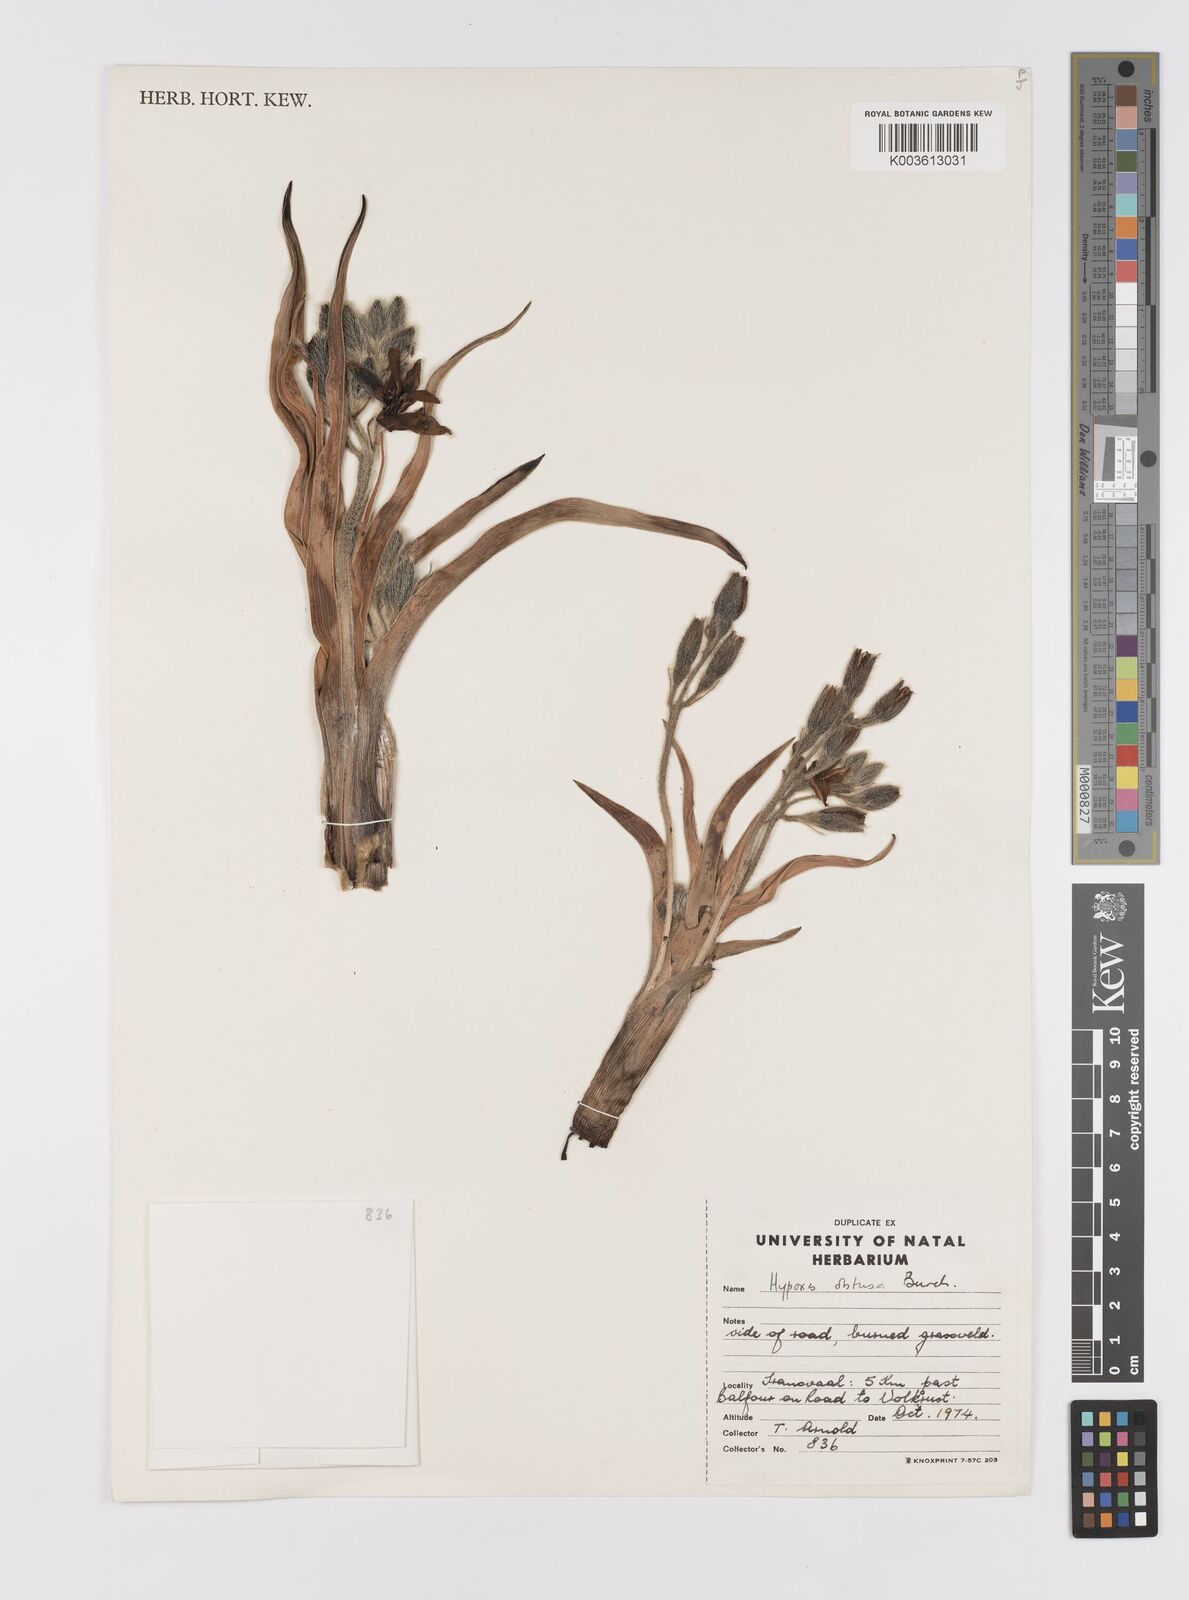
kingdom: Plantae
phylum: Tracheophyta
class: Liliopsida
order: Asparagales
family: Hypoxidaceae
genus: Hypoxis
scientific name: Hypoxis obtusa
